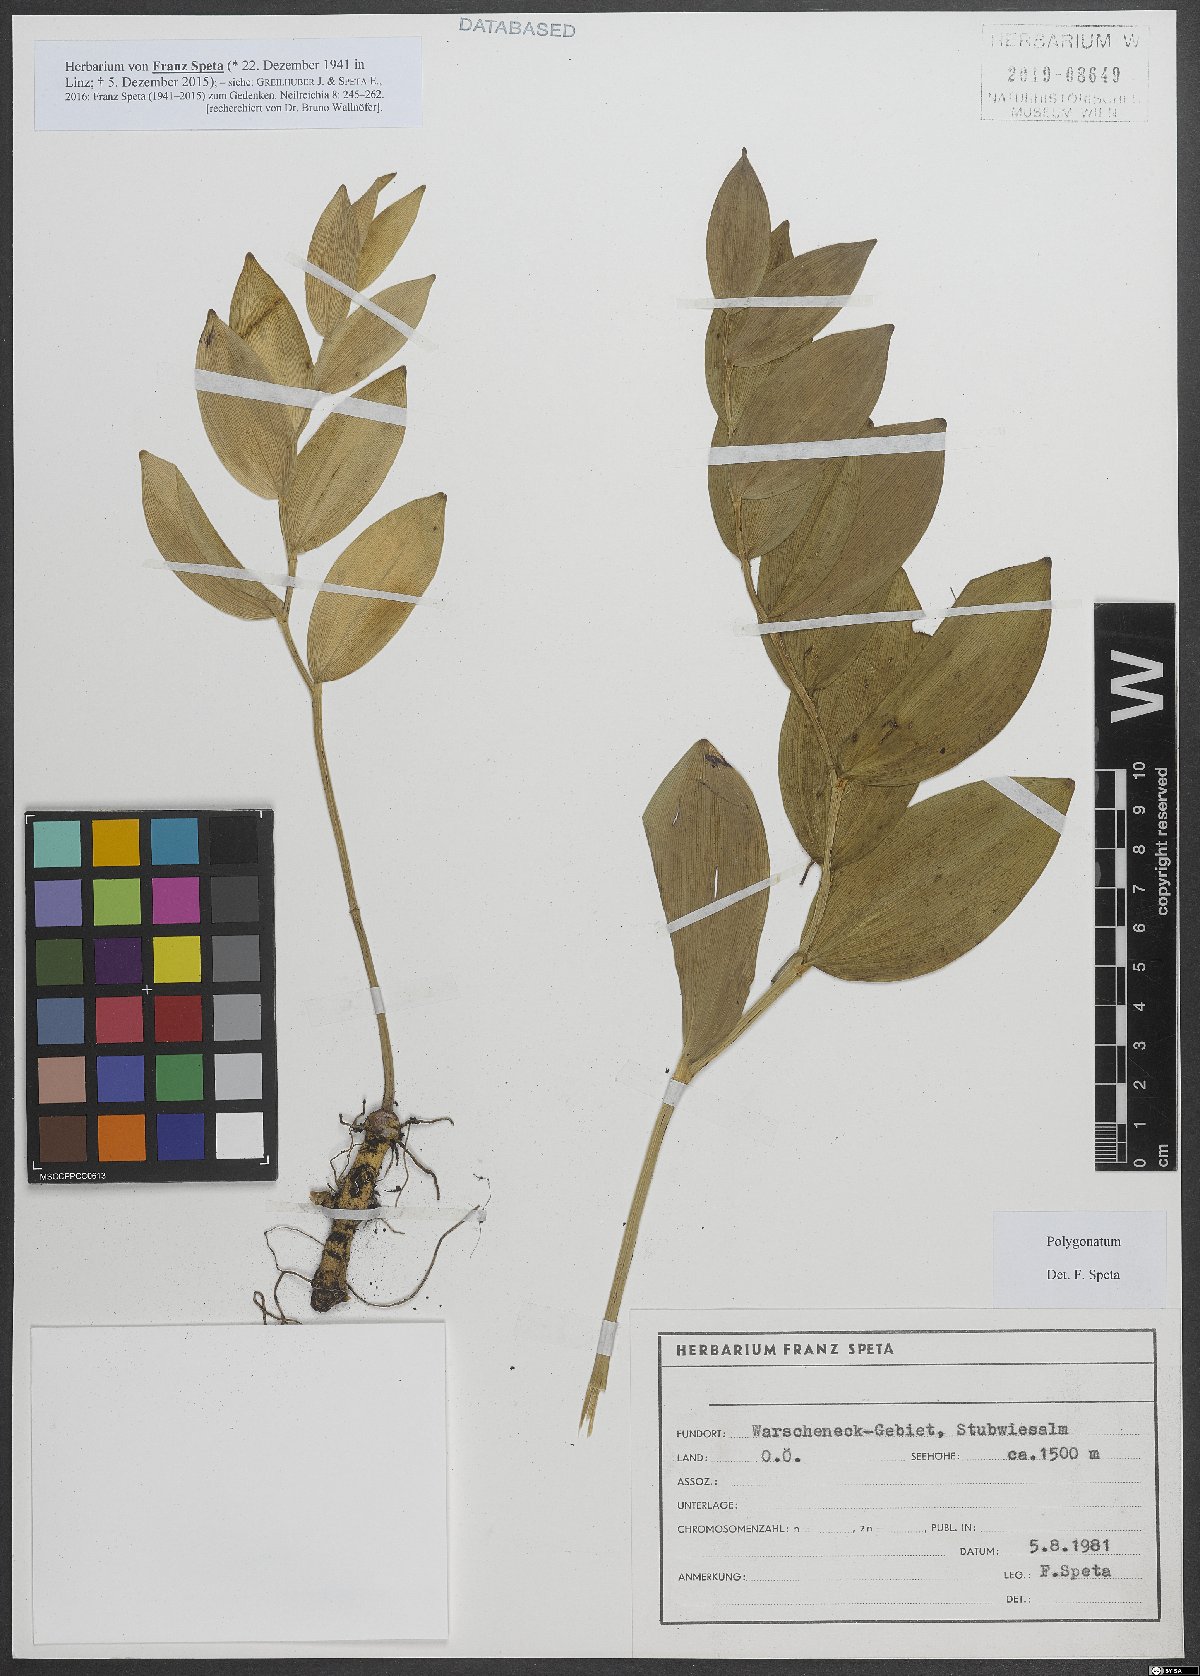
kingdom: Plantae
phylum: Tracheophyta
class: Liliopsida
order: Asparagales
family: Asparagaceae
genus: Polygonatum
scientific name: Polygonatum
